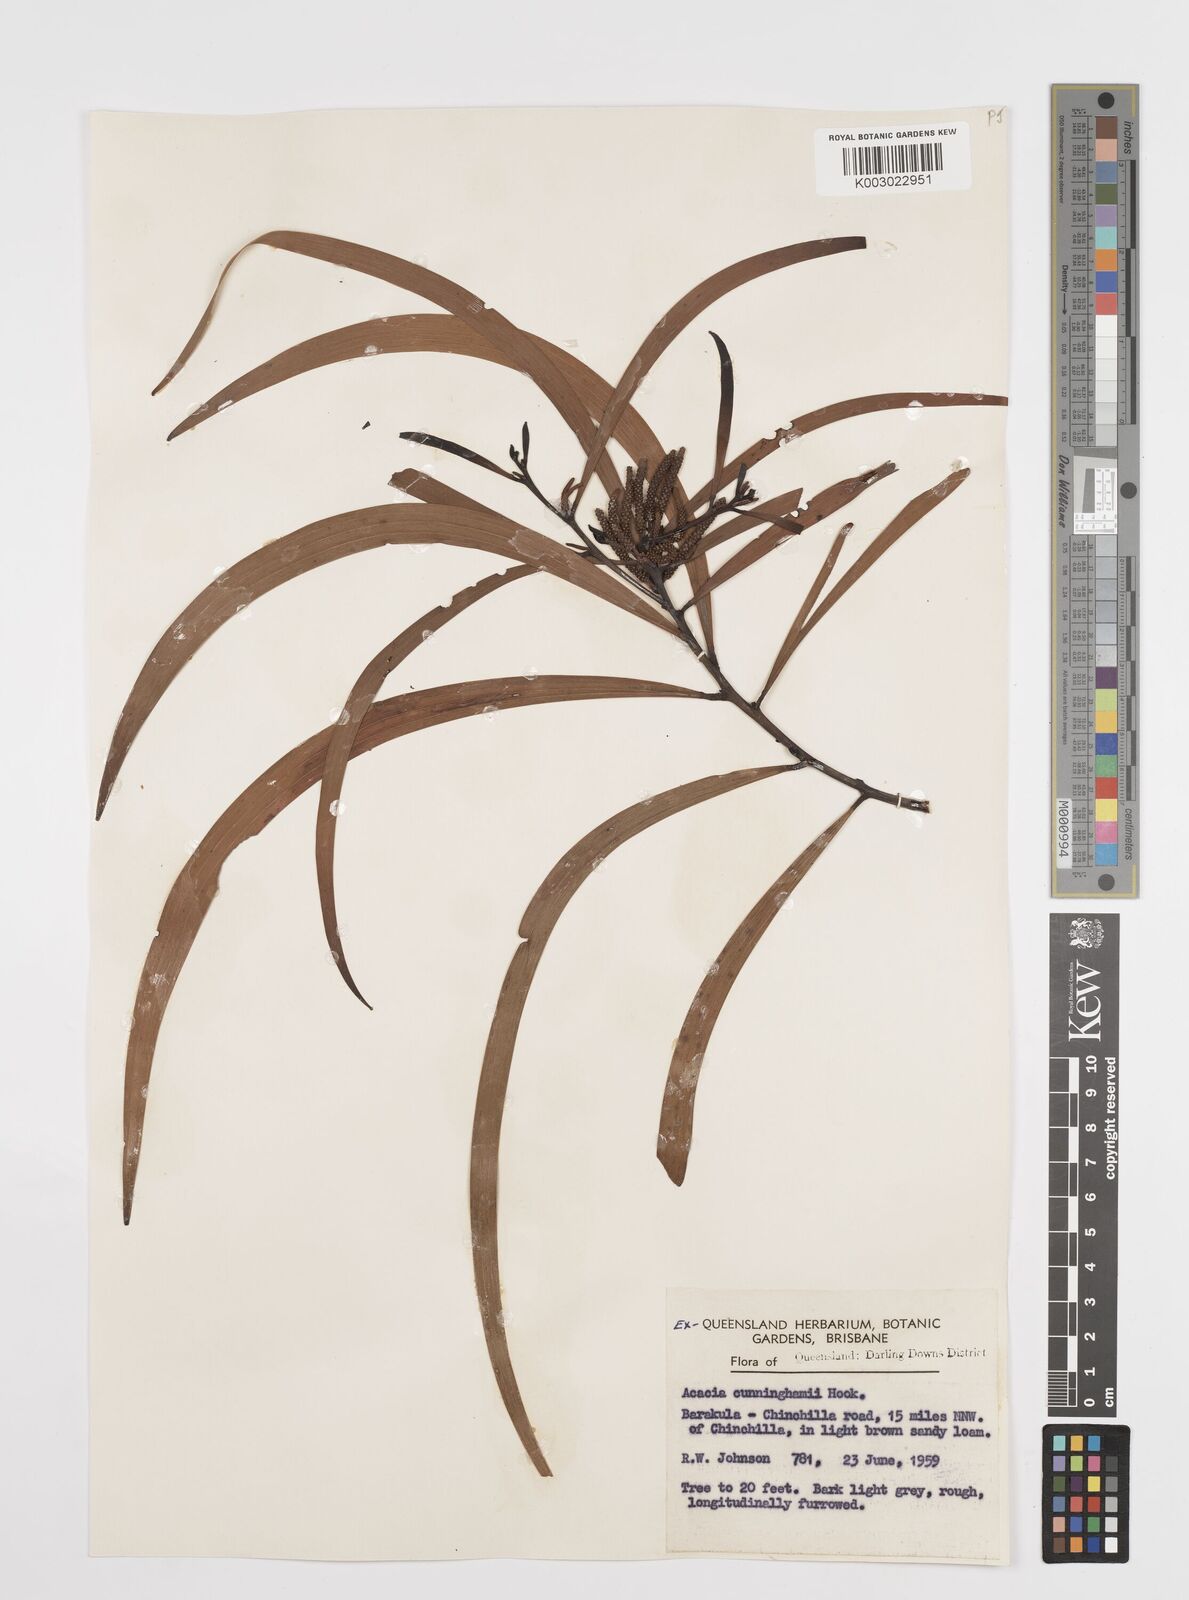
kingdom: Plantae
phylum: Tracheophyta
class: Magnoliopsida
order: Fabales
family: Fabaceae
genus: Acacia
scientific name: Acacia longispicata
